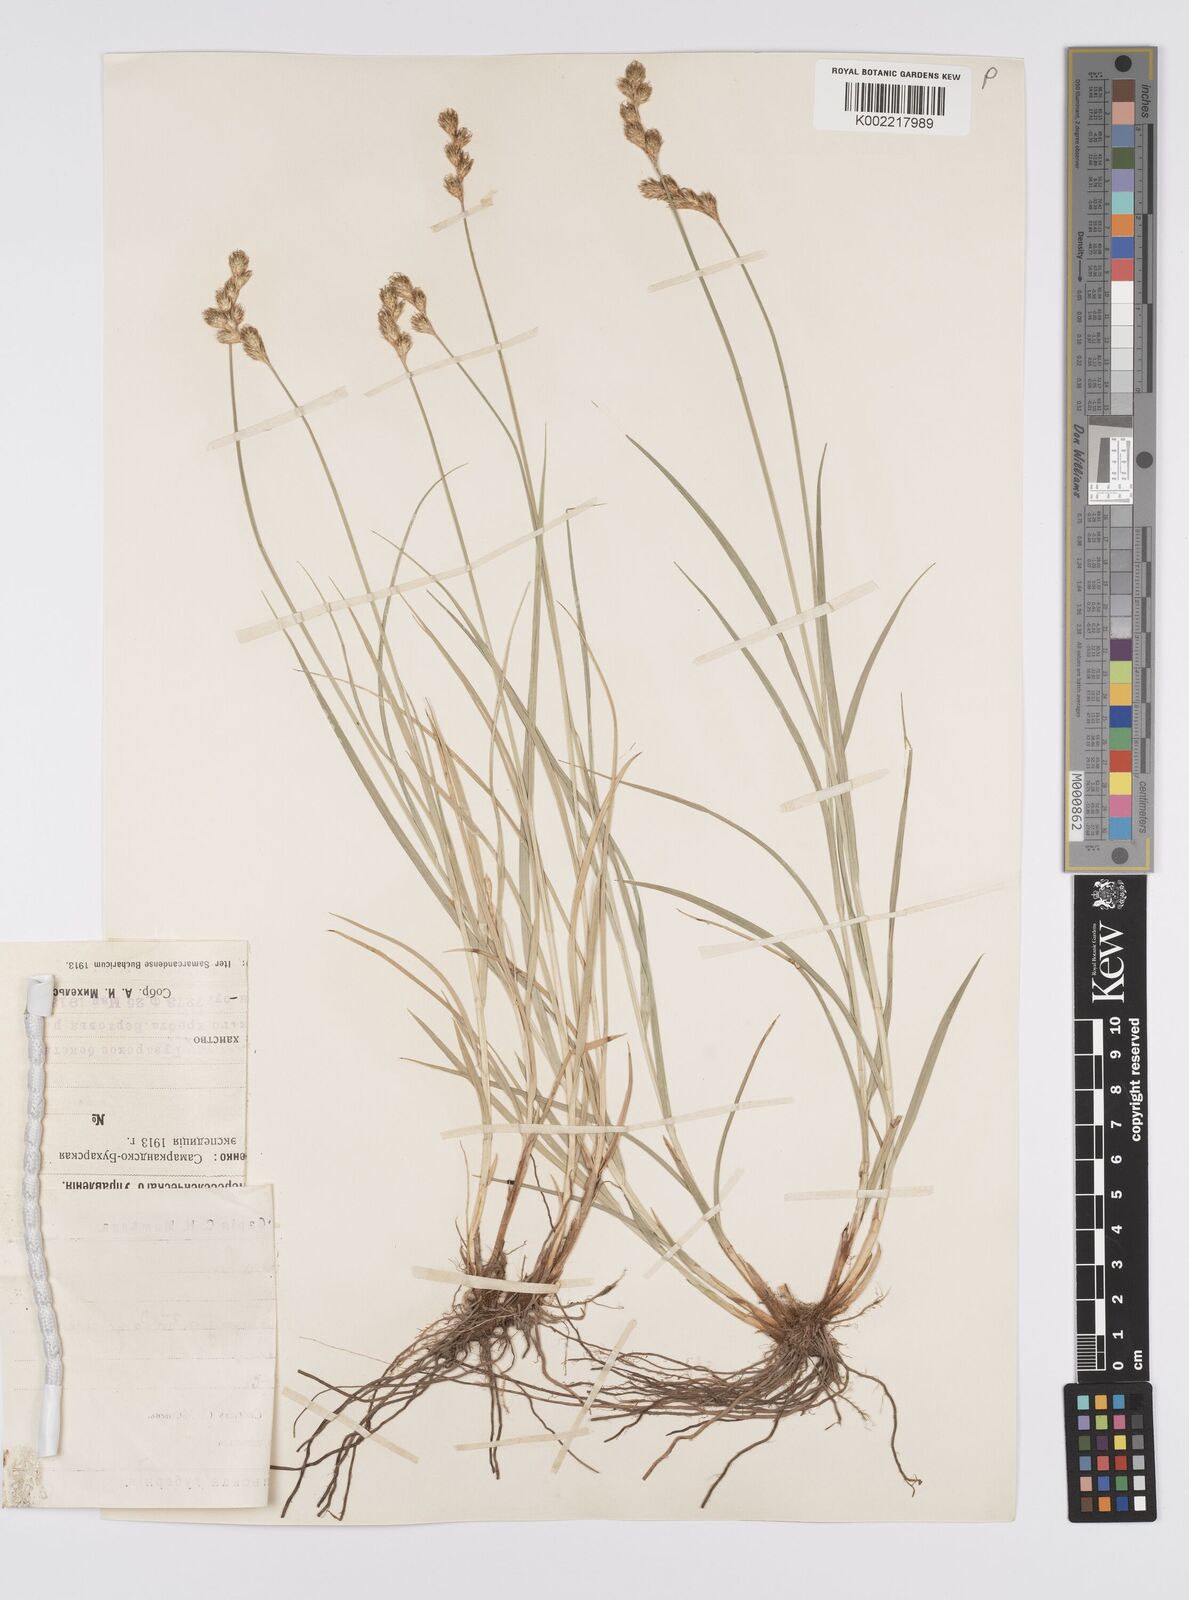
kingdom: Plantae
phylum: Tracheophyta
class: Liliopsida
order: Poales
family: Cyperaceae
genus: Carex
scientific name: Carex leporina
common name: Oval sedge
